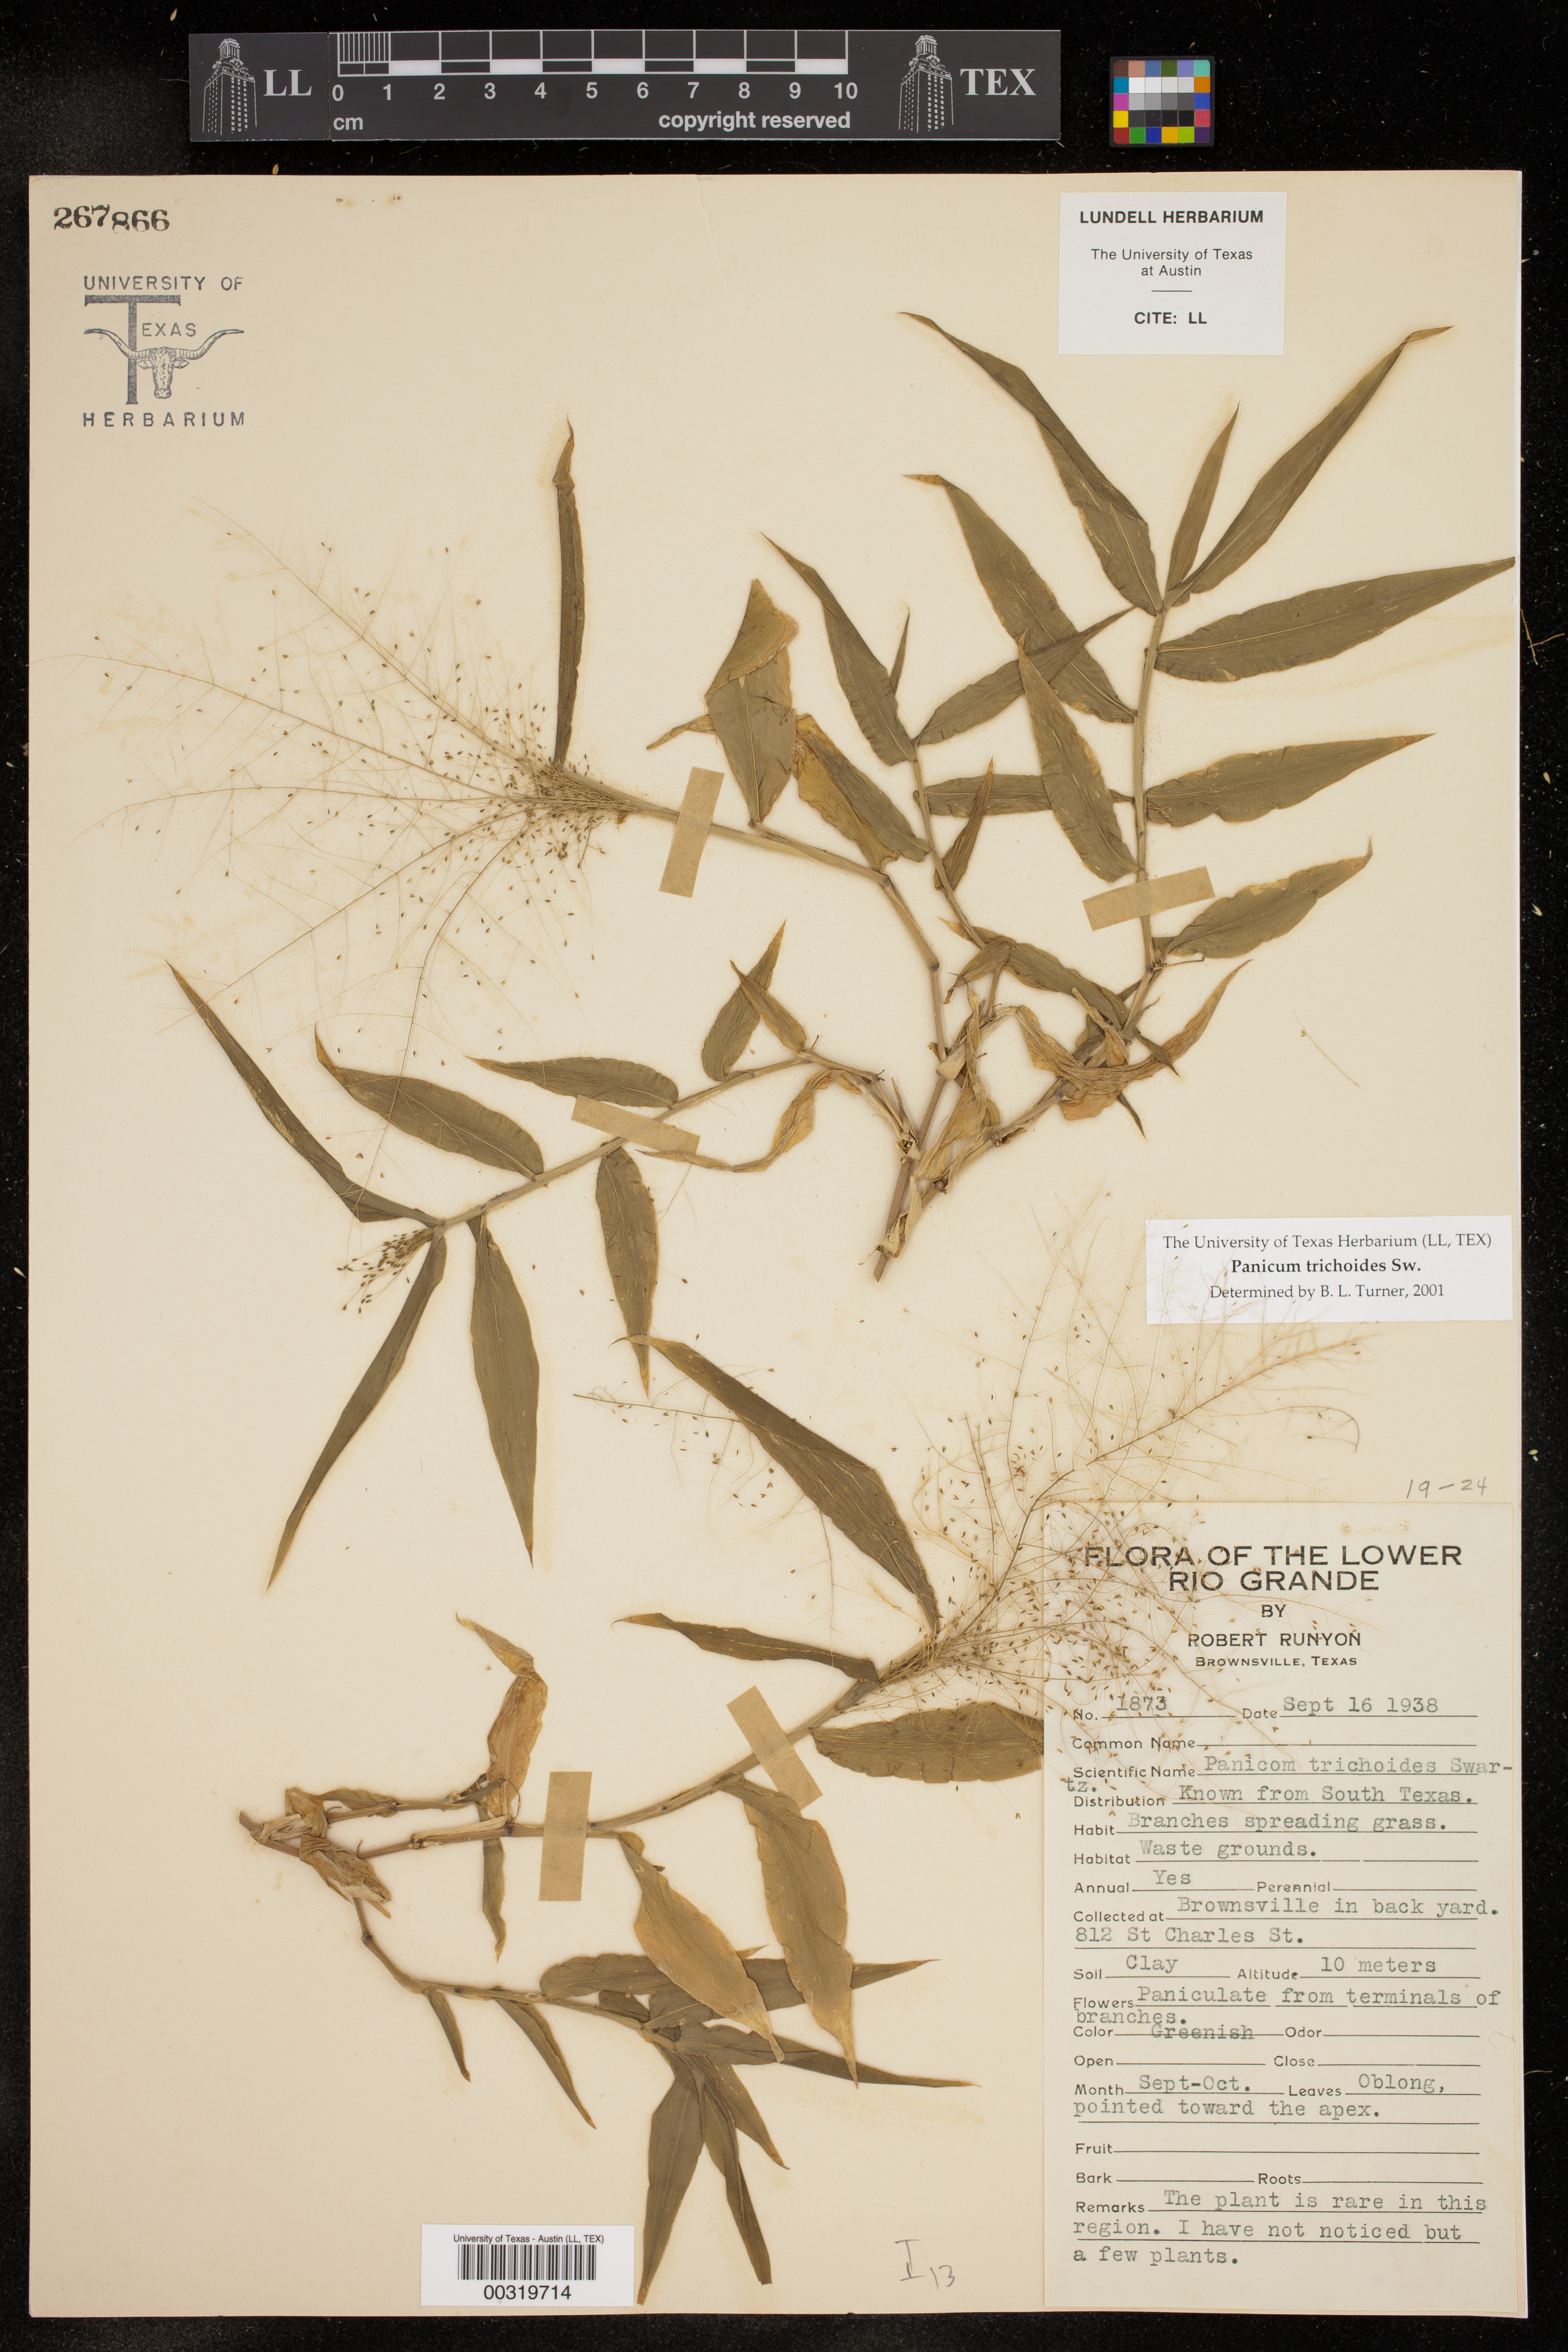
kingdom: Plantae
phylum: Tracheophyta
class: Liliopsida
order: Poales
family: Poaceae
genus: Panicum
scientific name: Panicum trichoides
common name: Tickle grass
